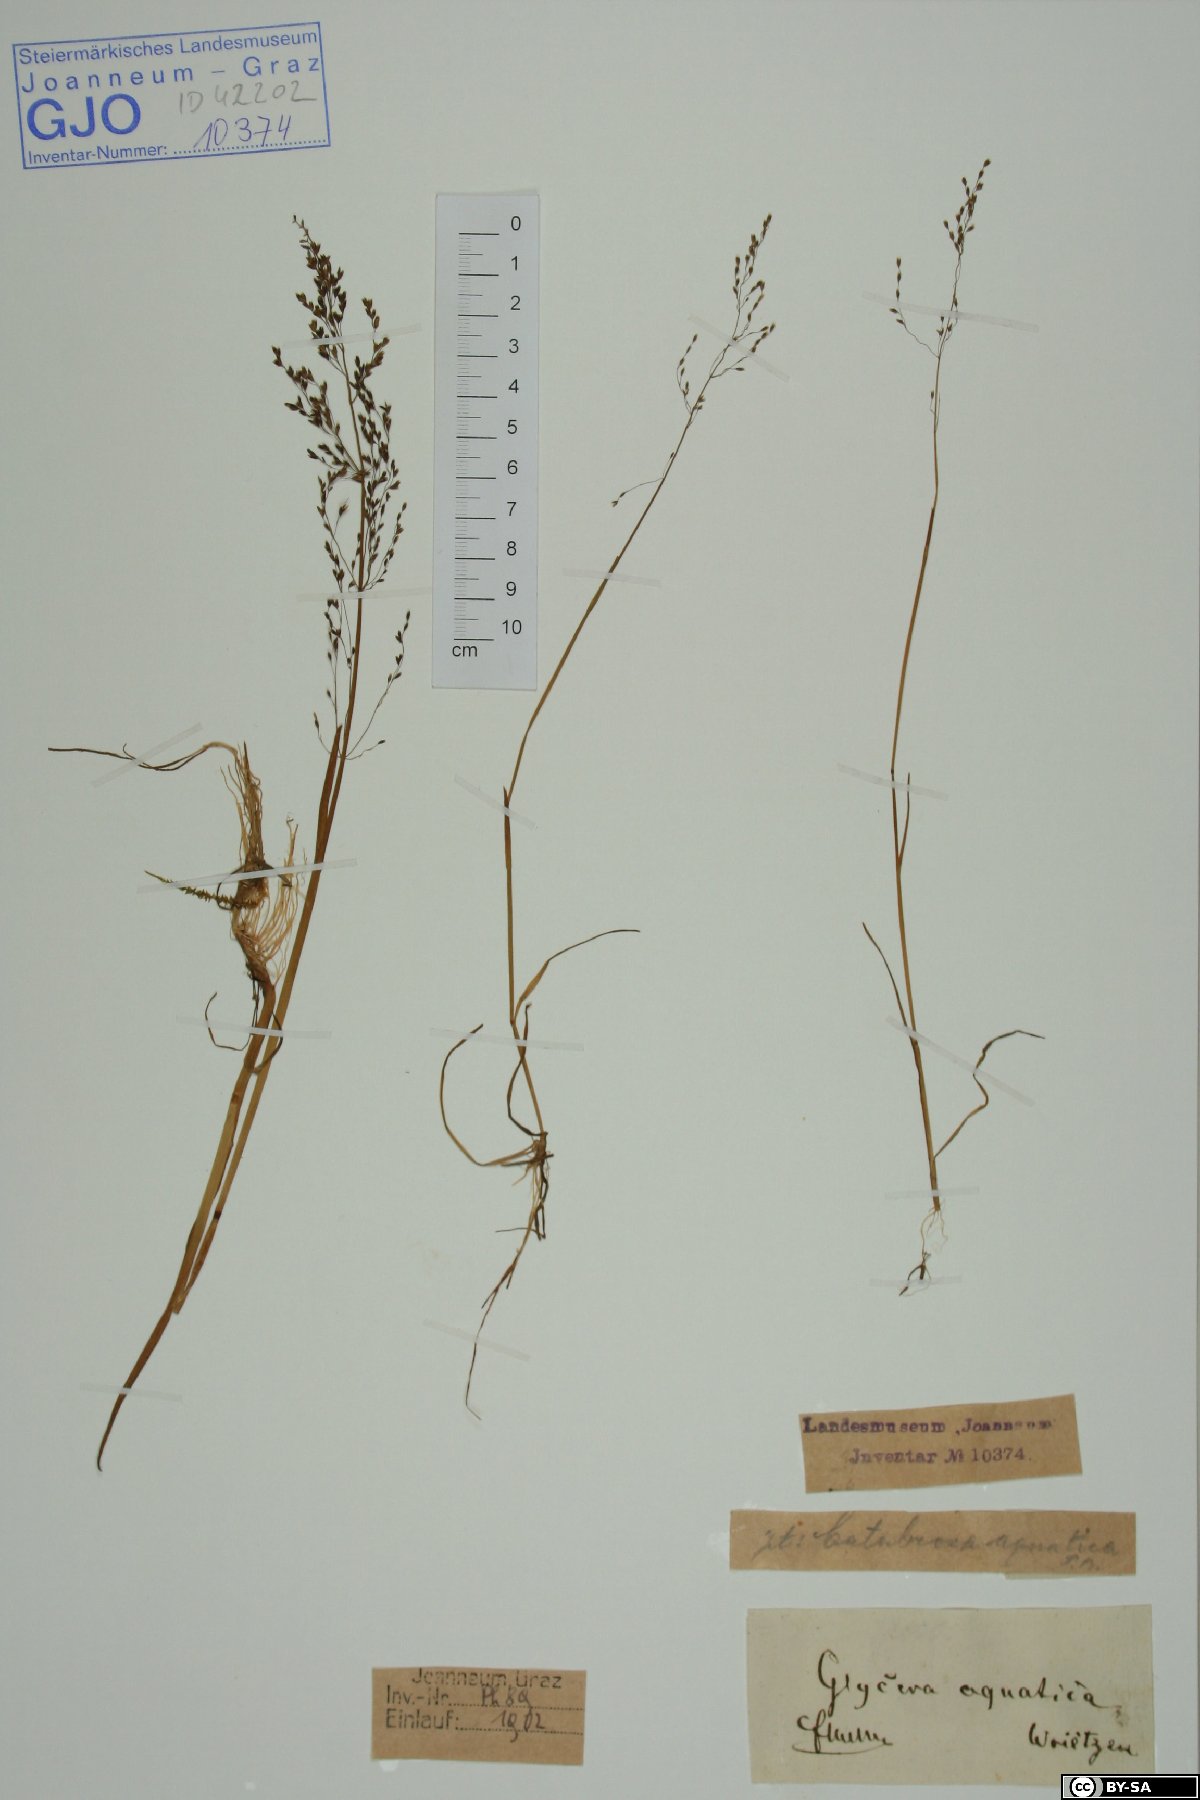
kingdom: Plantae
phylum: Tracheophyta
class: Liliopsida
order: Poales
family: Poaceae
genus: Catabrosa
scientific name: Catabrosa aquatica
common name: Whorl-grass
